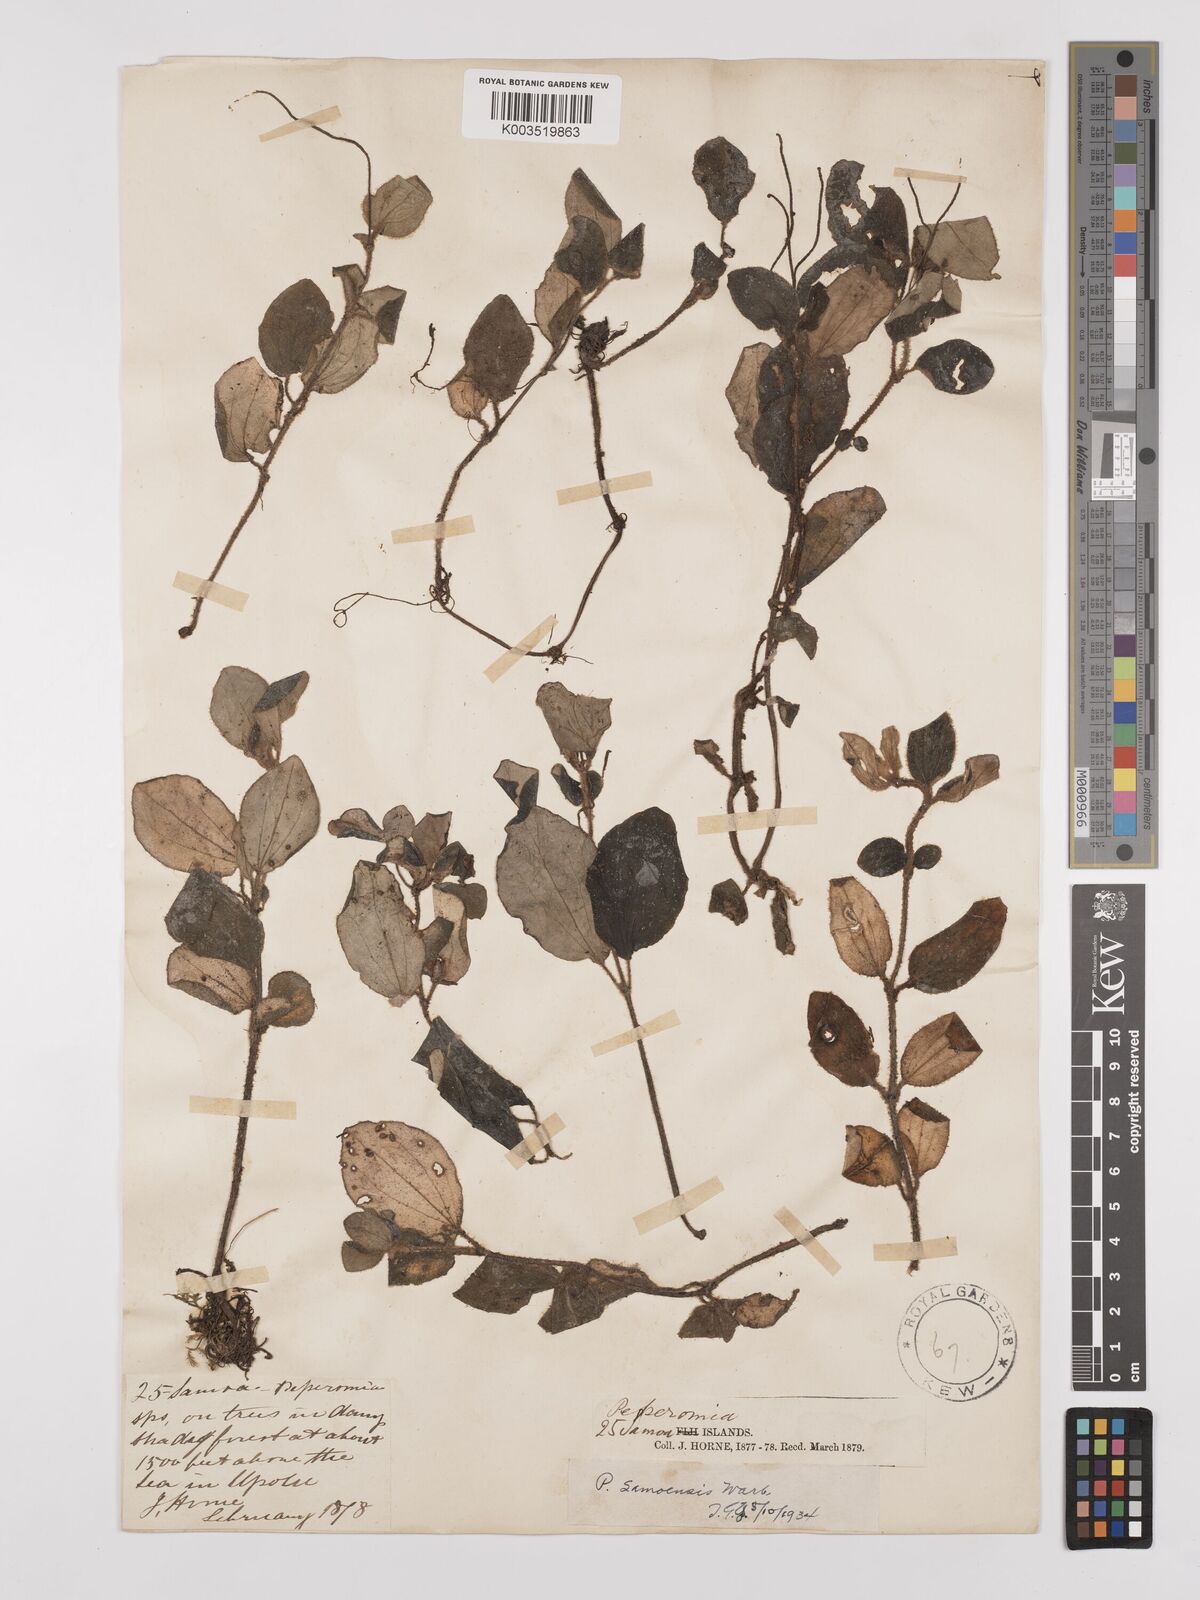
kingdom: Plantae
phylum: Tracheophyta
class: Magnoliopsida
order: Piperales
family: Piperaceae
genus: Peperomia
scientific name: Peperomia samoensis
